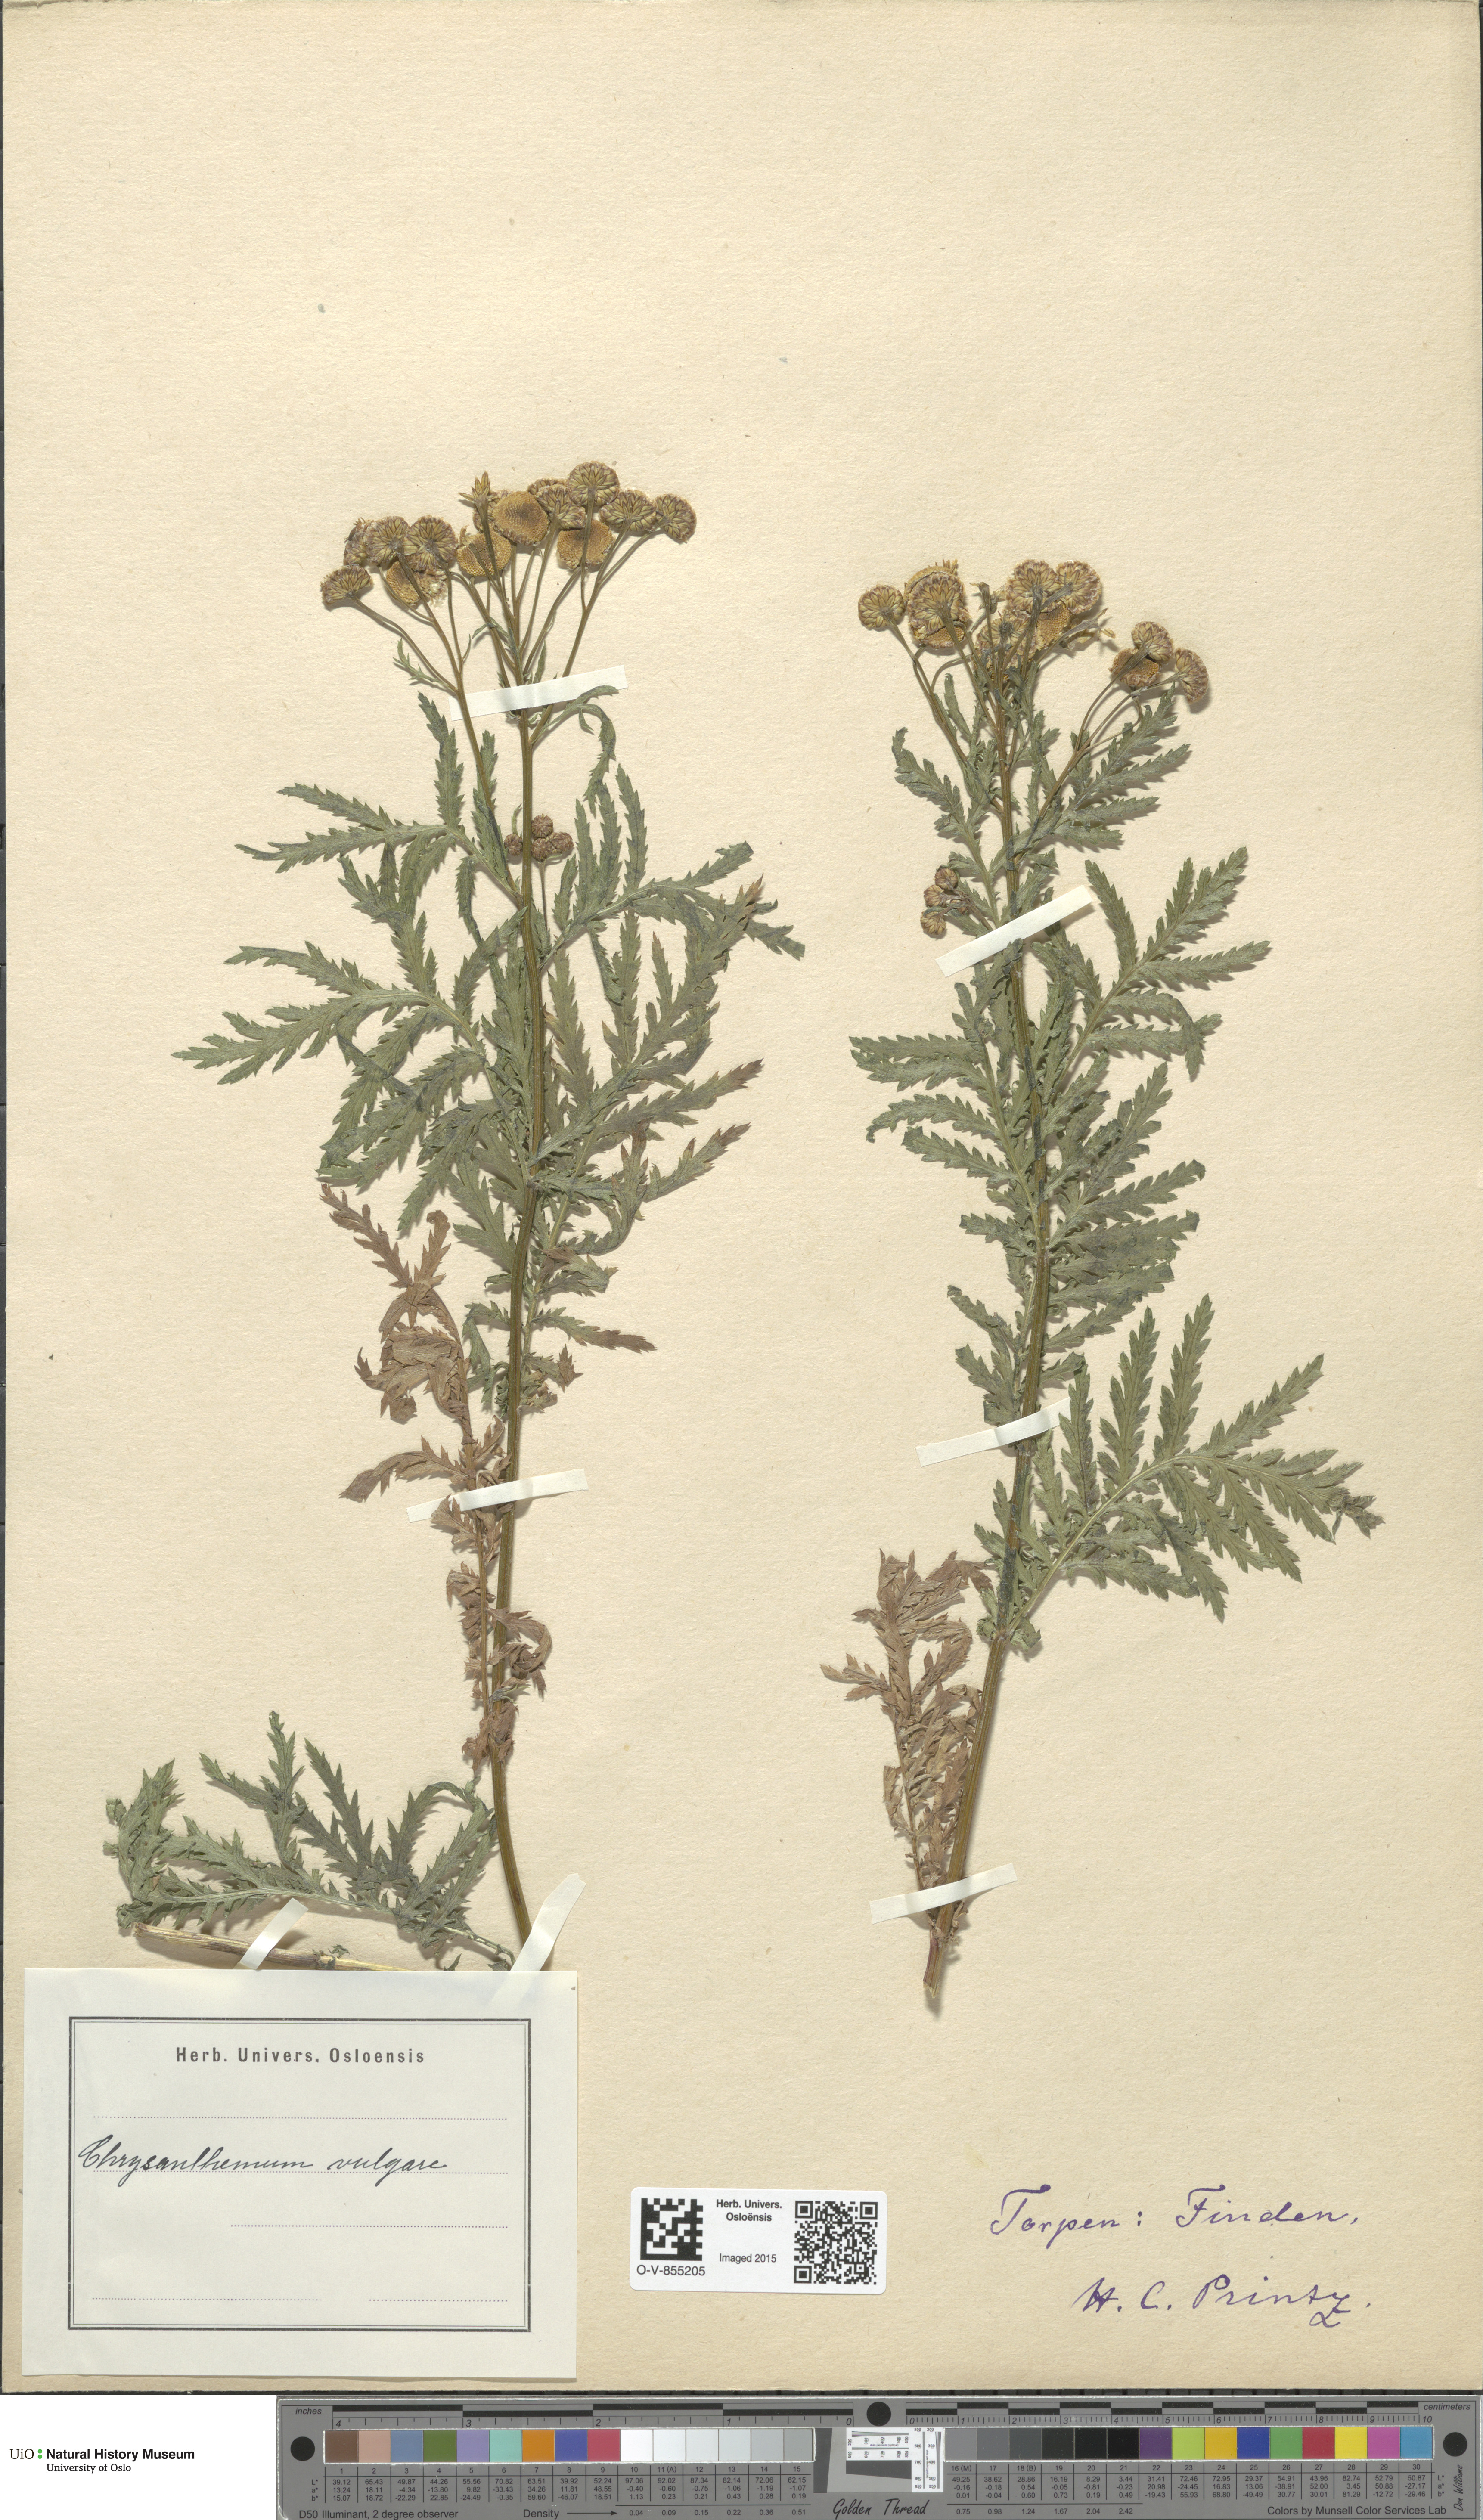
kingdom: Plantae
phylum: Tracheophyta
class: Magnoliopsida
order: Asterales
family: Asteraceae
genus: Tanacetum
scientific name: Tanacetum vulgare
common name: Common tansy
